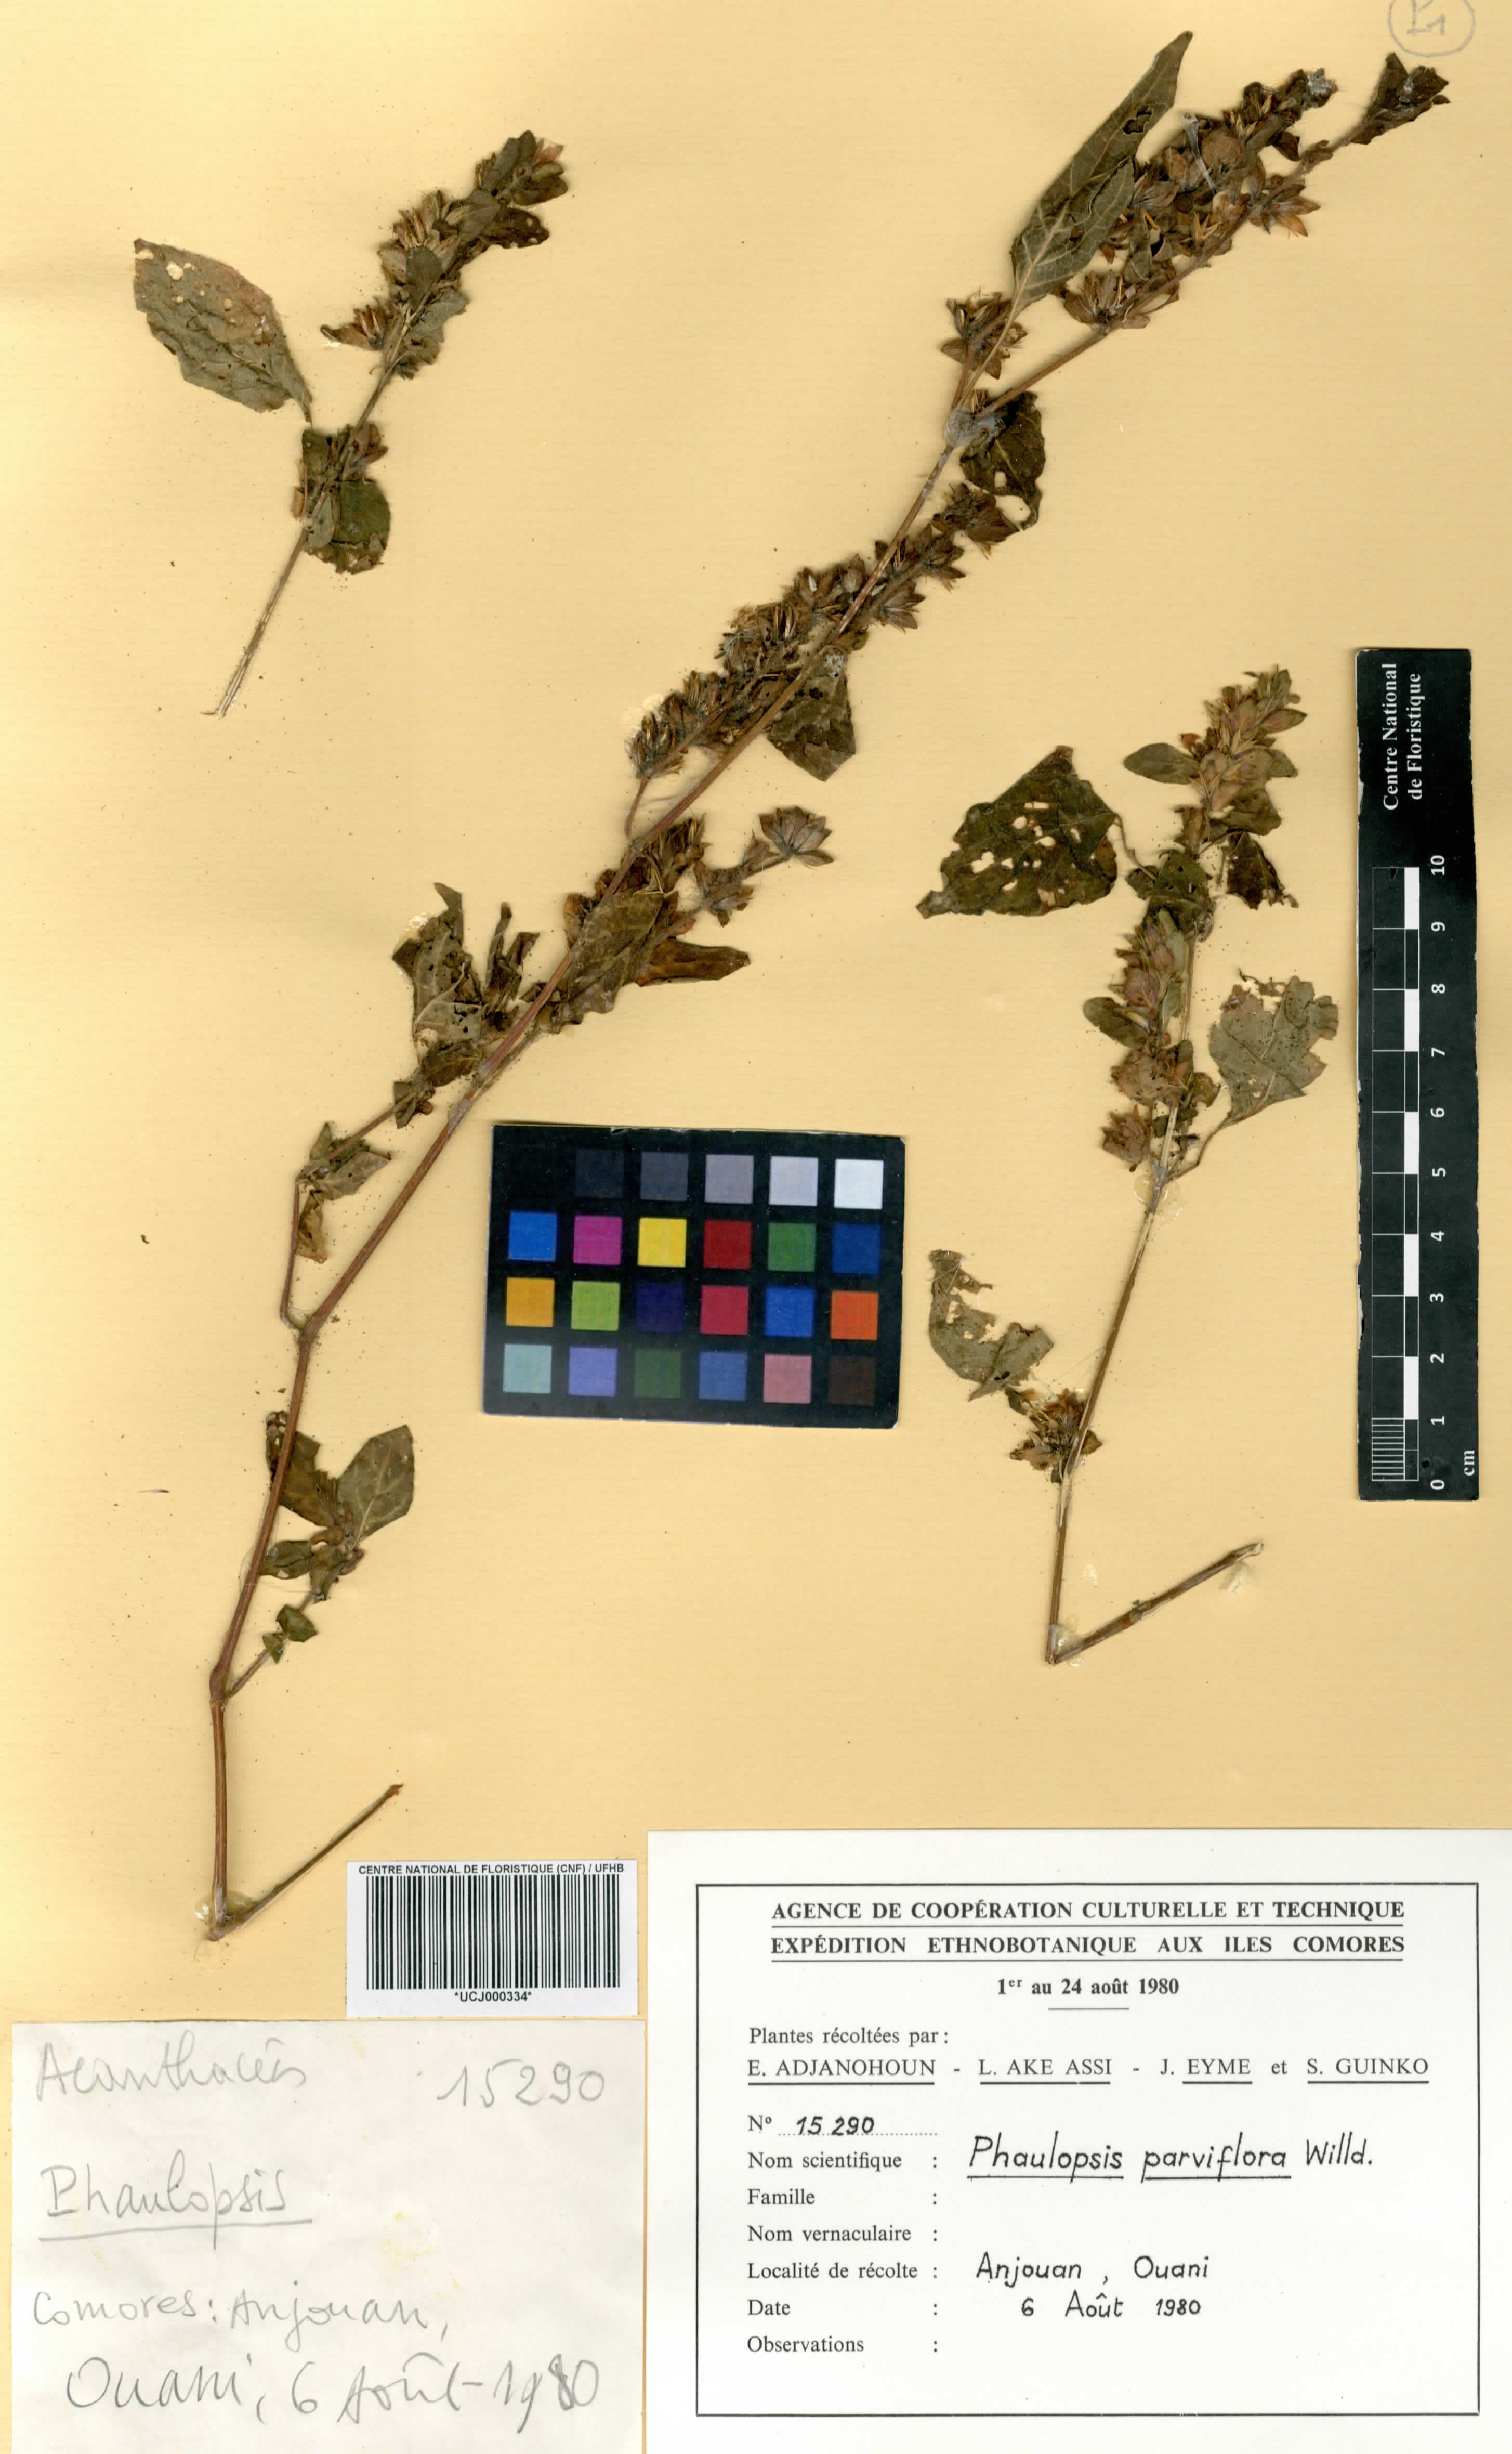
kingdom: Plantae
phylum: Tracheophyta
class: Magnoliopsida
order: Lamiales
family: Acanthaceae
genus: Phaulopsis
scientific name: Phaulopsis dorsiflora
